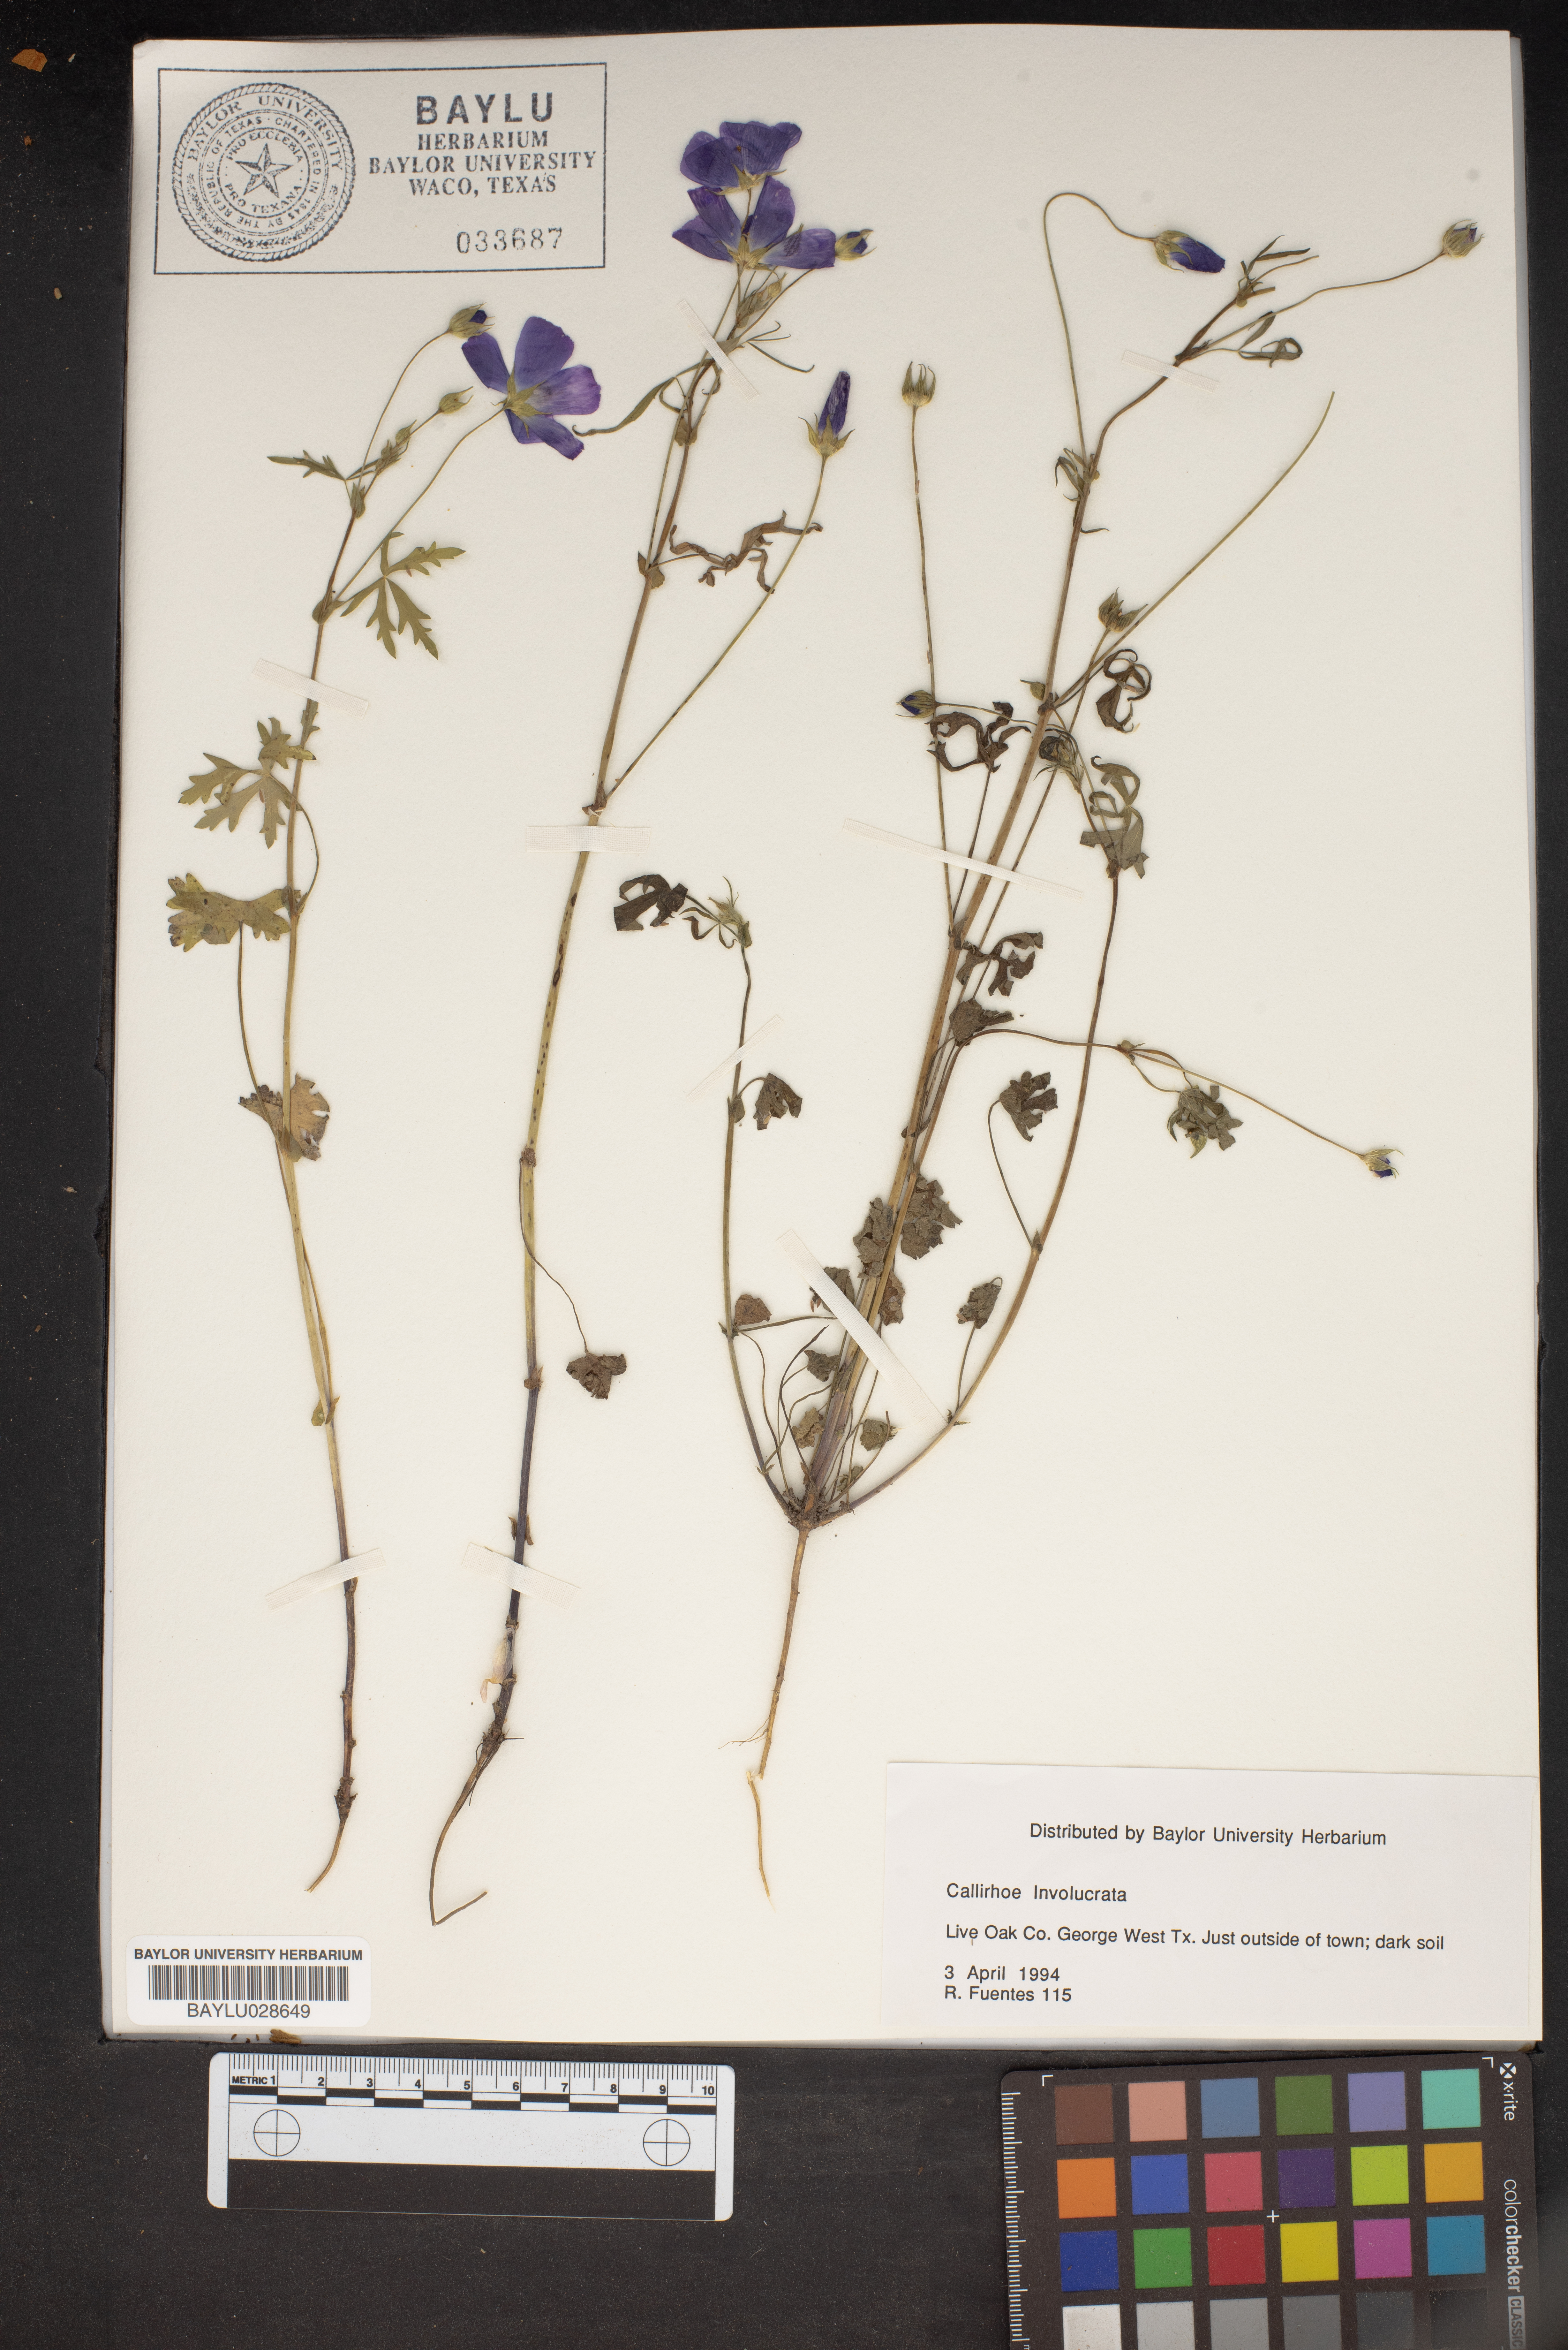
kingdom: Plantae
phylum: Tracheophyta
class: Magnoliopsida
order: Malvales
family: Malvaceae
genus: Callirhoe
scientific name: Callirhoe involucrata
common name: Purple poppy-mallow
